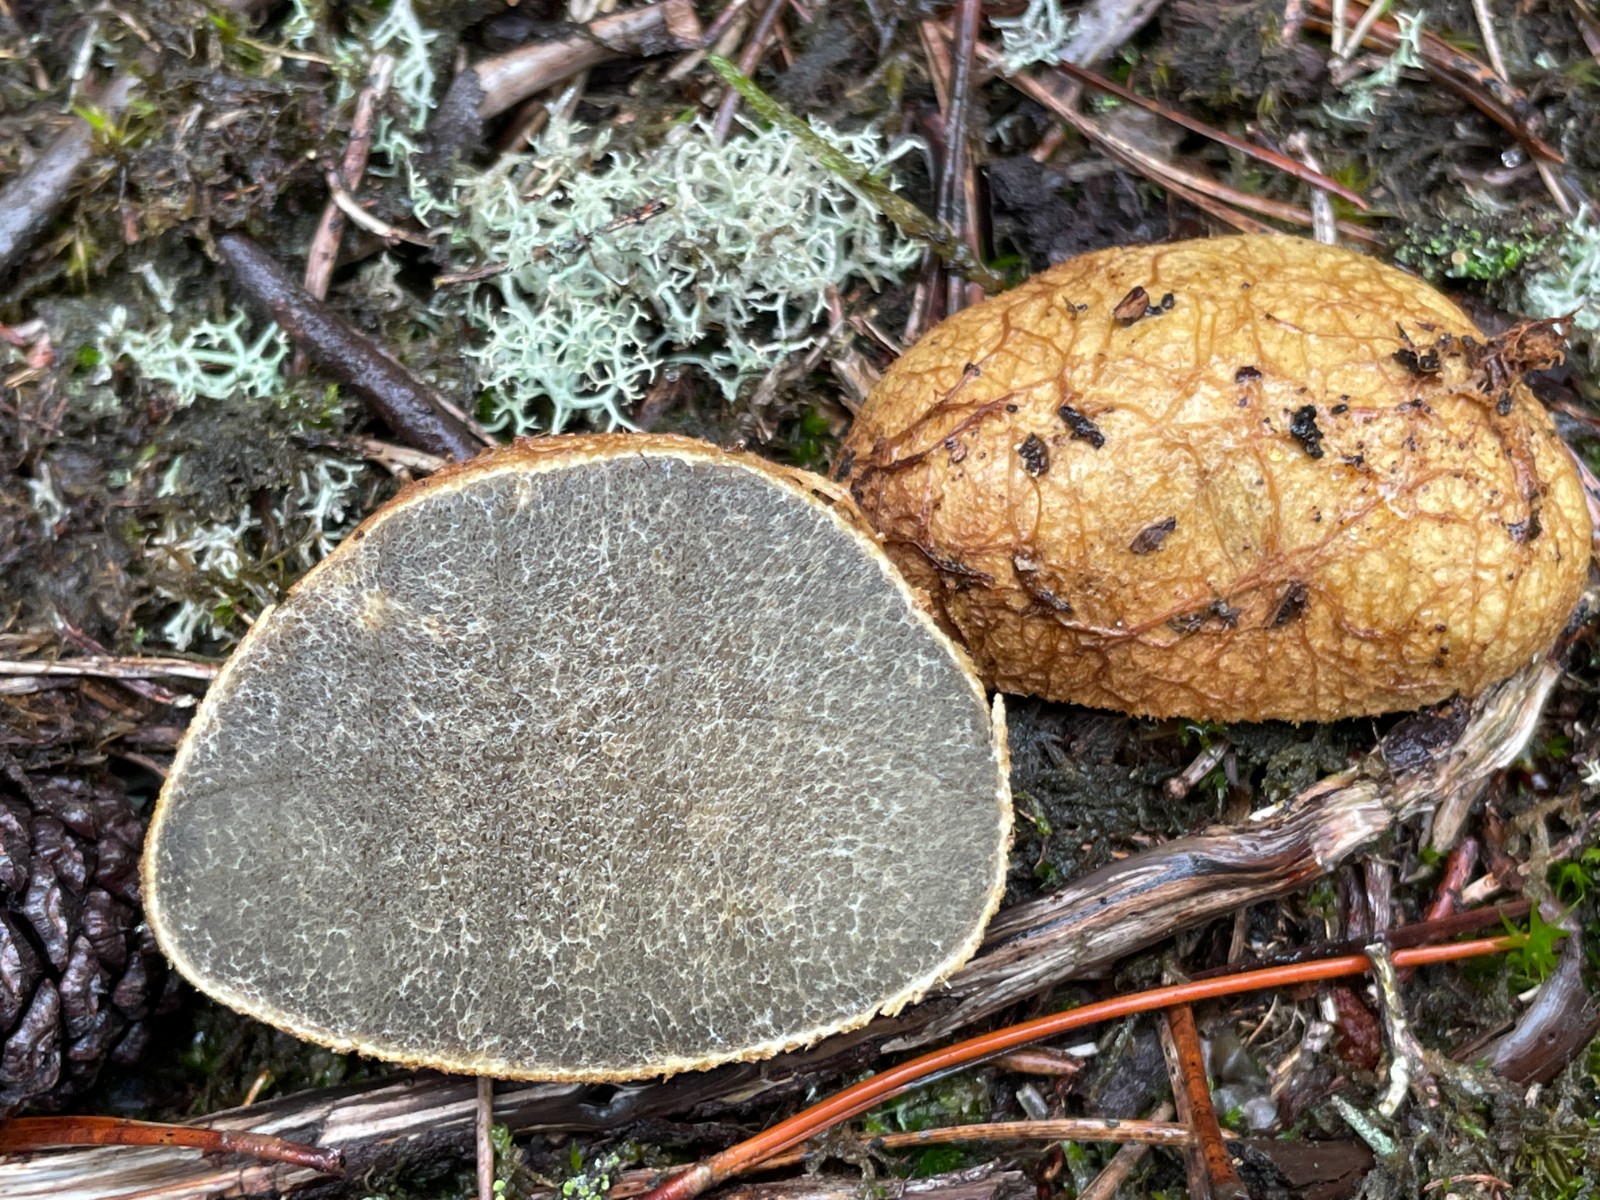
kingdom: Fungi
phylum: Basidiomycota
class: Agaricomycetes
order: Boletales
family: Rhizopogonaceae
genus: Rhizopogon
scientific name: Rhizopogon obtextus
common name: gul skægtrøffel
